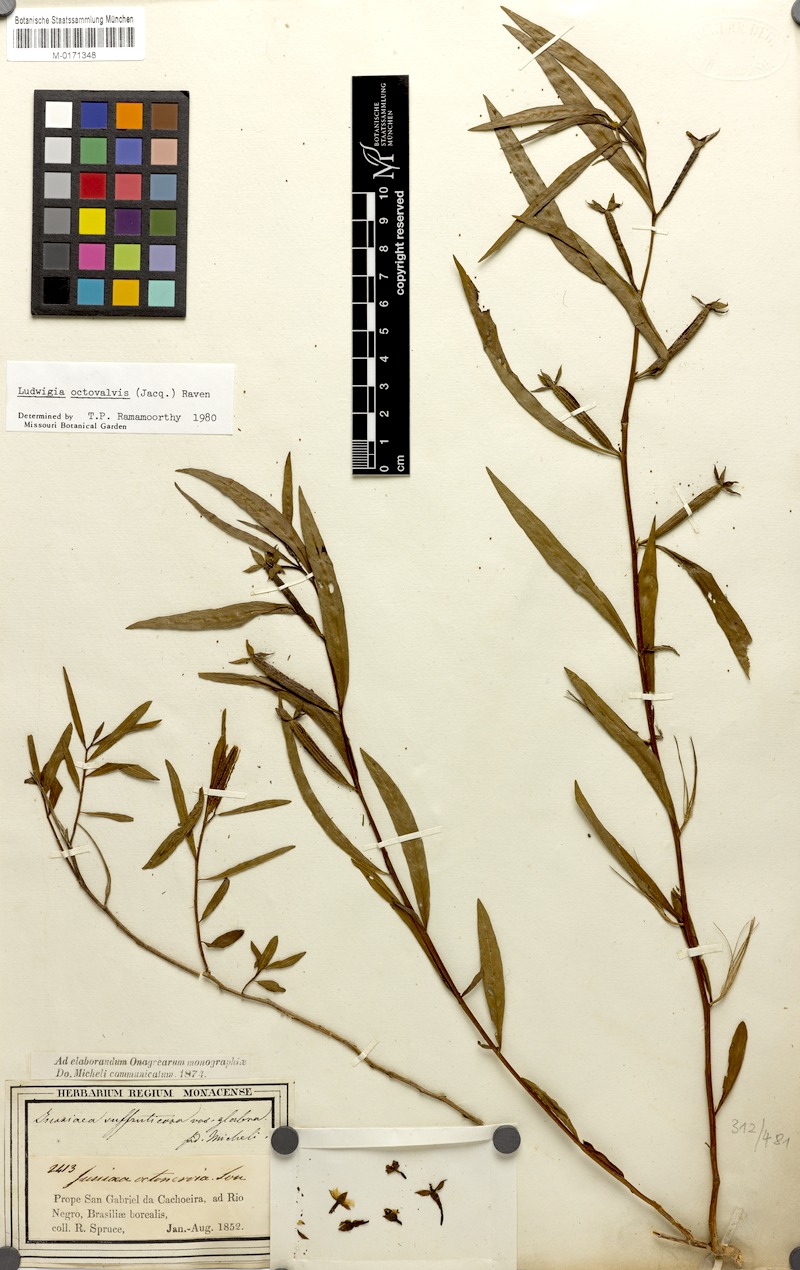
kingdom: Plantae
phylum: Tracheophyta
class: Magnoliopsida
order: Myrtales
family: Onagraceae
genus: Ludwigia
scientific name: Ludwigia octovalvis
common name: Water-primrose
